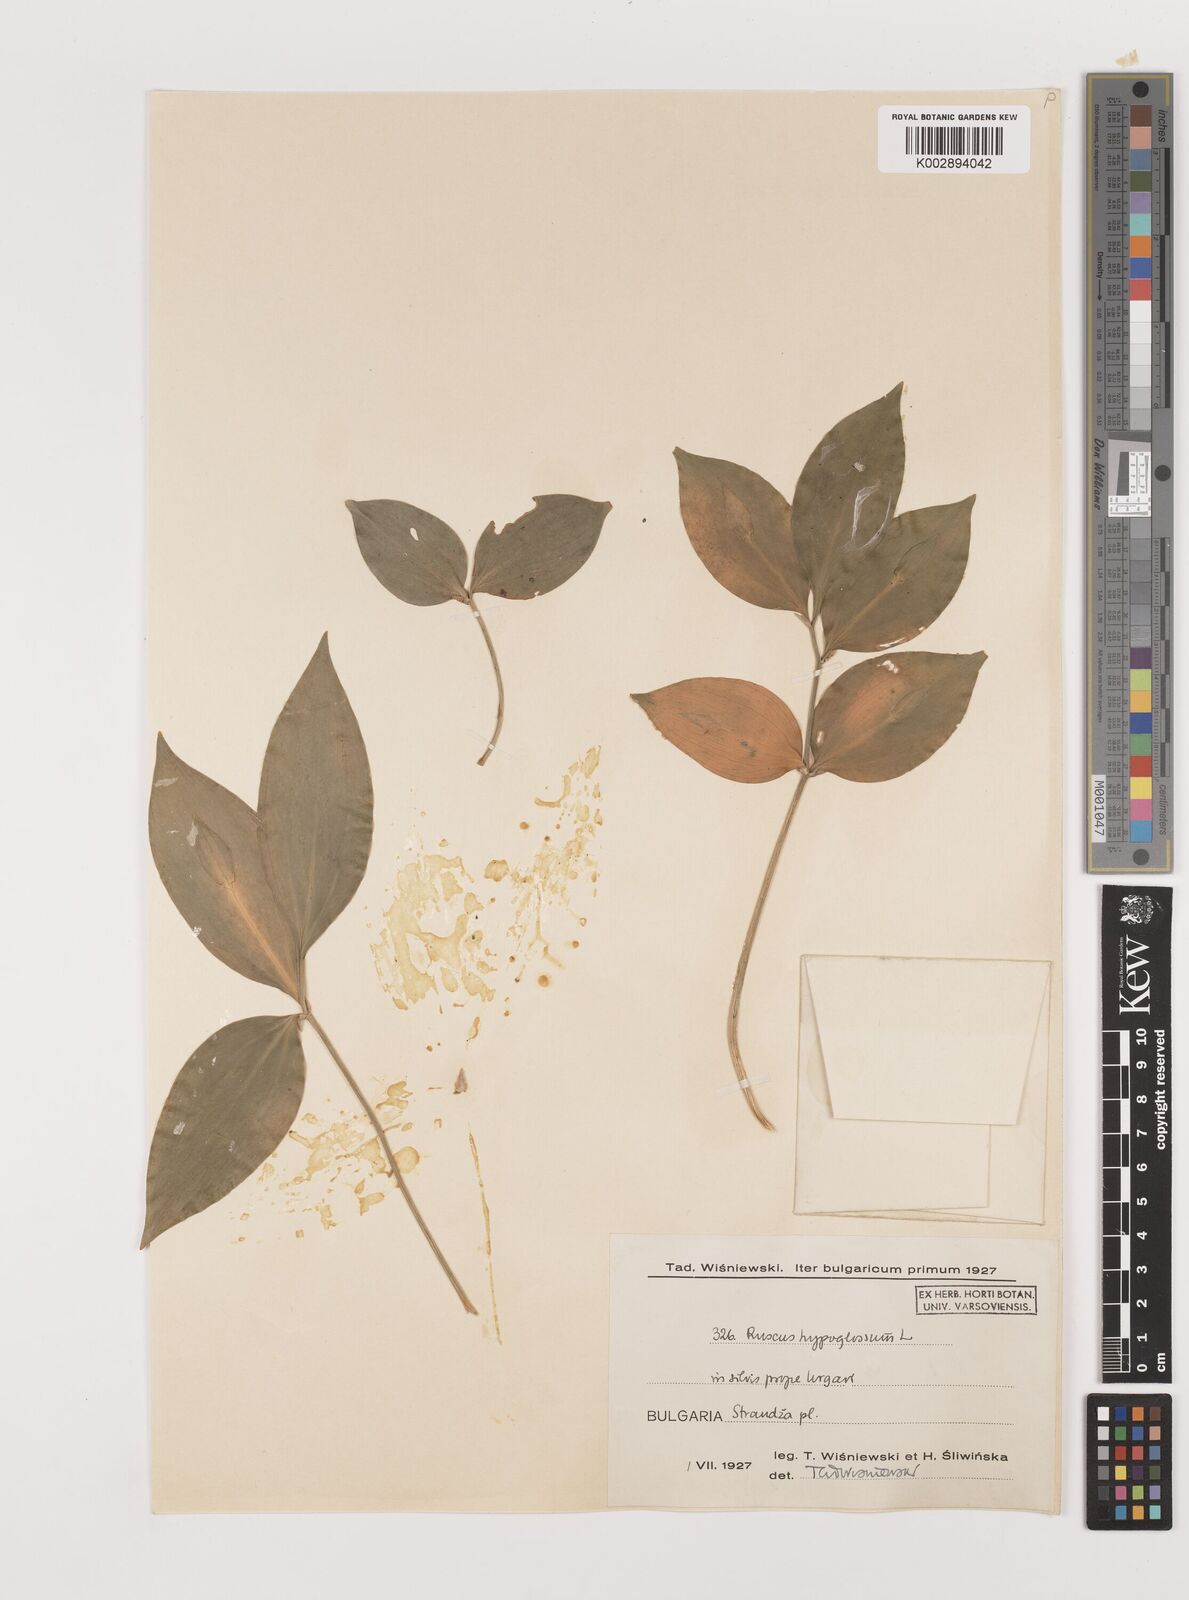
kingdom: Plantae
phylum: Tracheophyta
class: Liliopsida
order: Asparagales
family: Asparagaceae
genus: Ruscus
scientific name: Ruscus hypoglossum
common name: Spineless butcher's-broom
